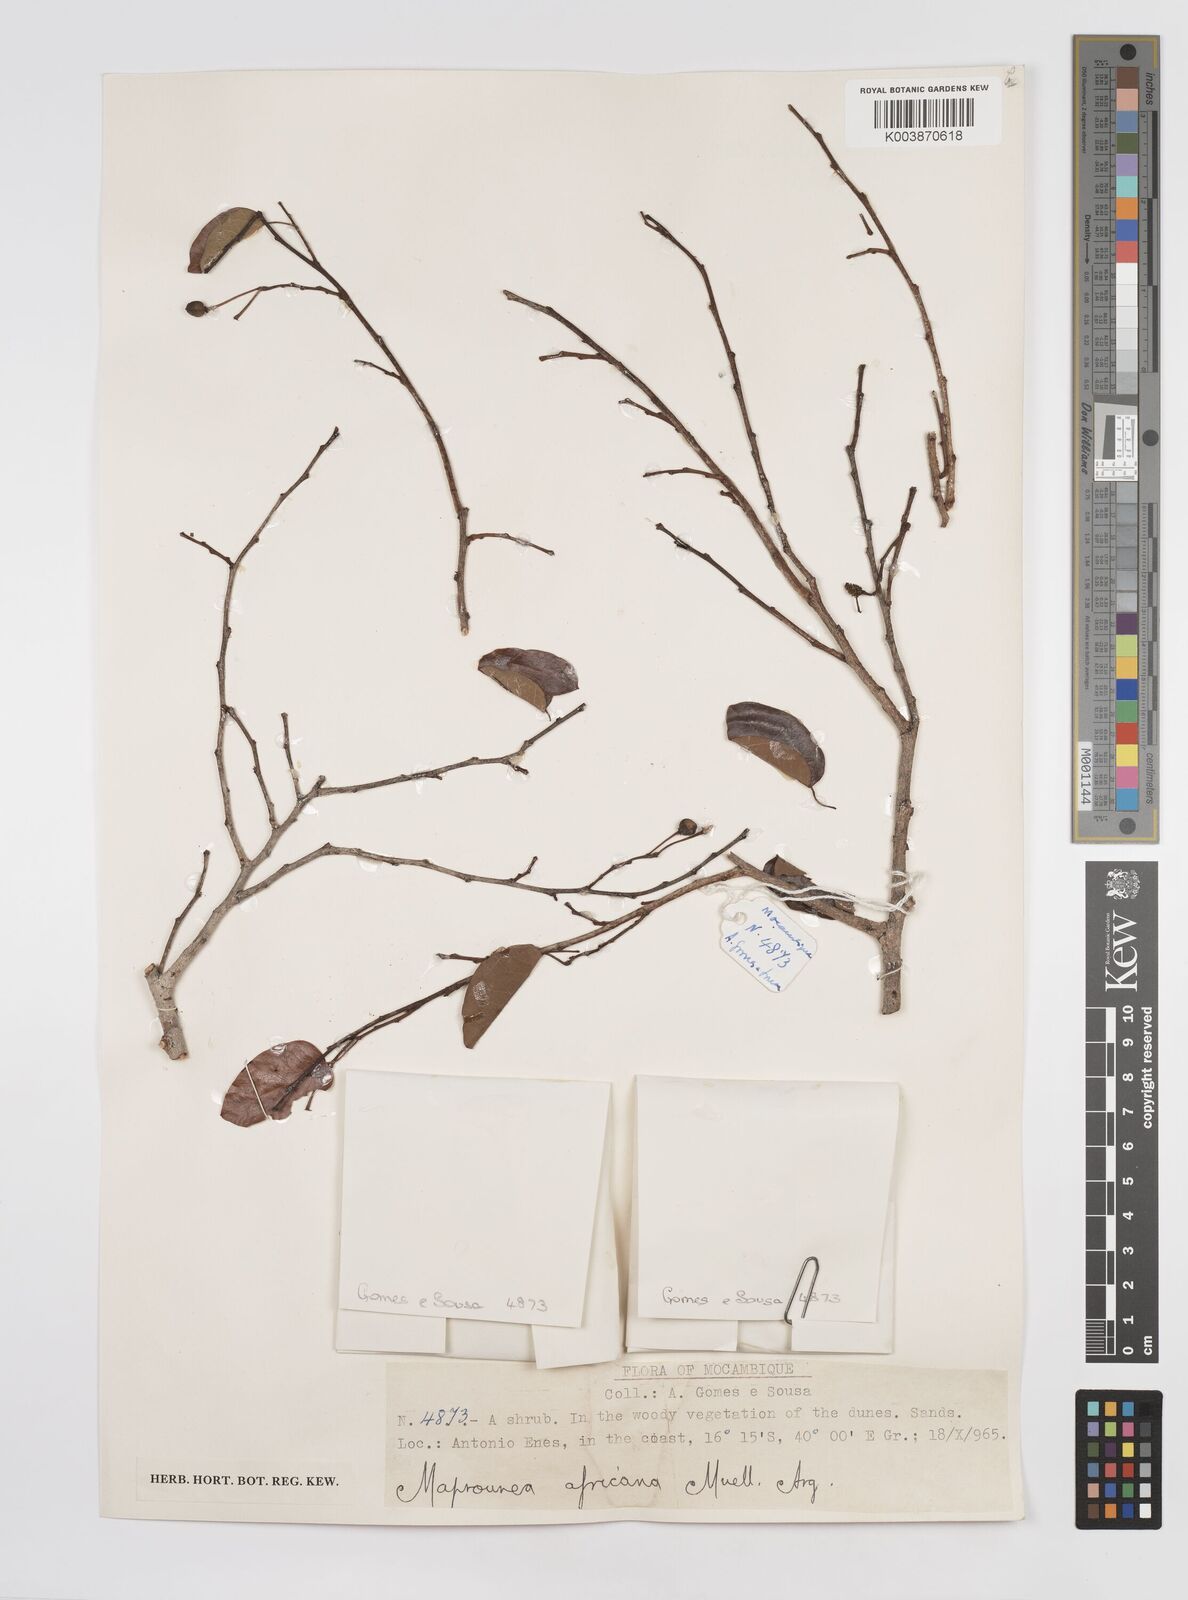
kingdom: Plantae
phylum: Tracheophyta
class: Magnoliopsida
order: Malpighiales
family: Euphorbiaceae
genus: Maprounea
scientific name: Maprounea africana
